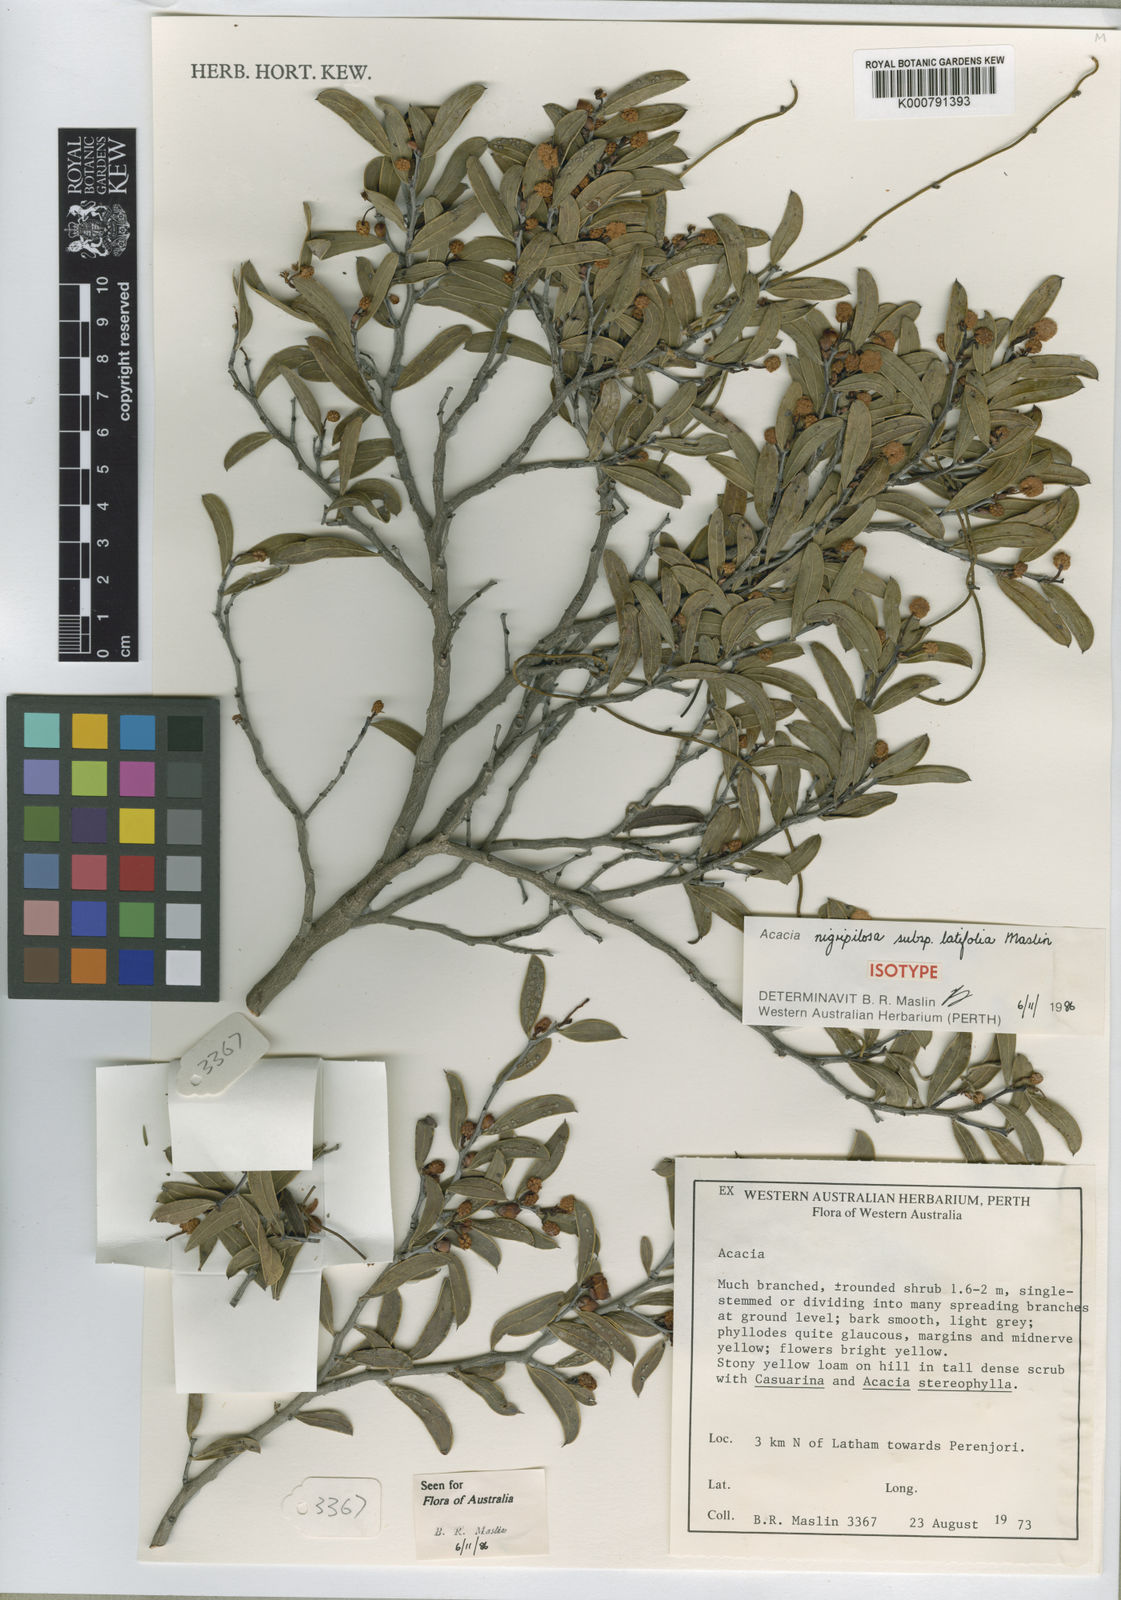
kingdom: Plantae
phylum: Tracheophyta
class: Magnoliopsida
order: Fabales
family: Fabaceae
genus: Acacia
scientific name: Acacia nigripilosa
